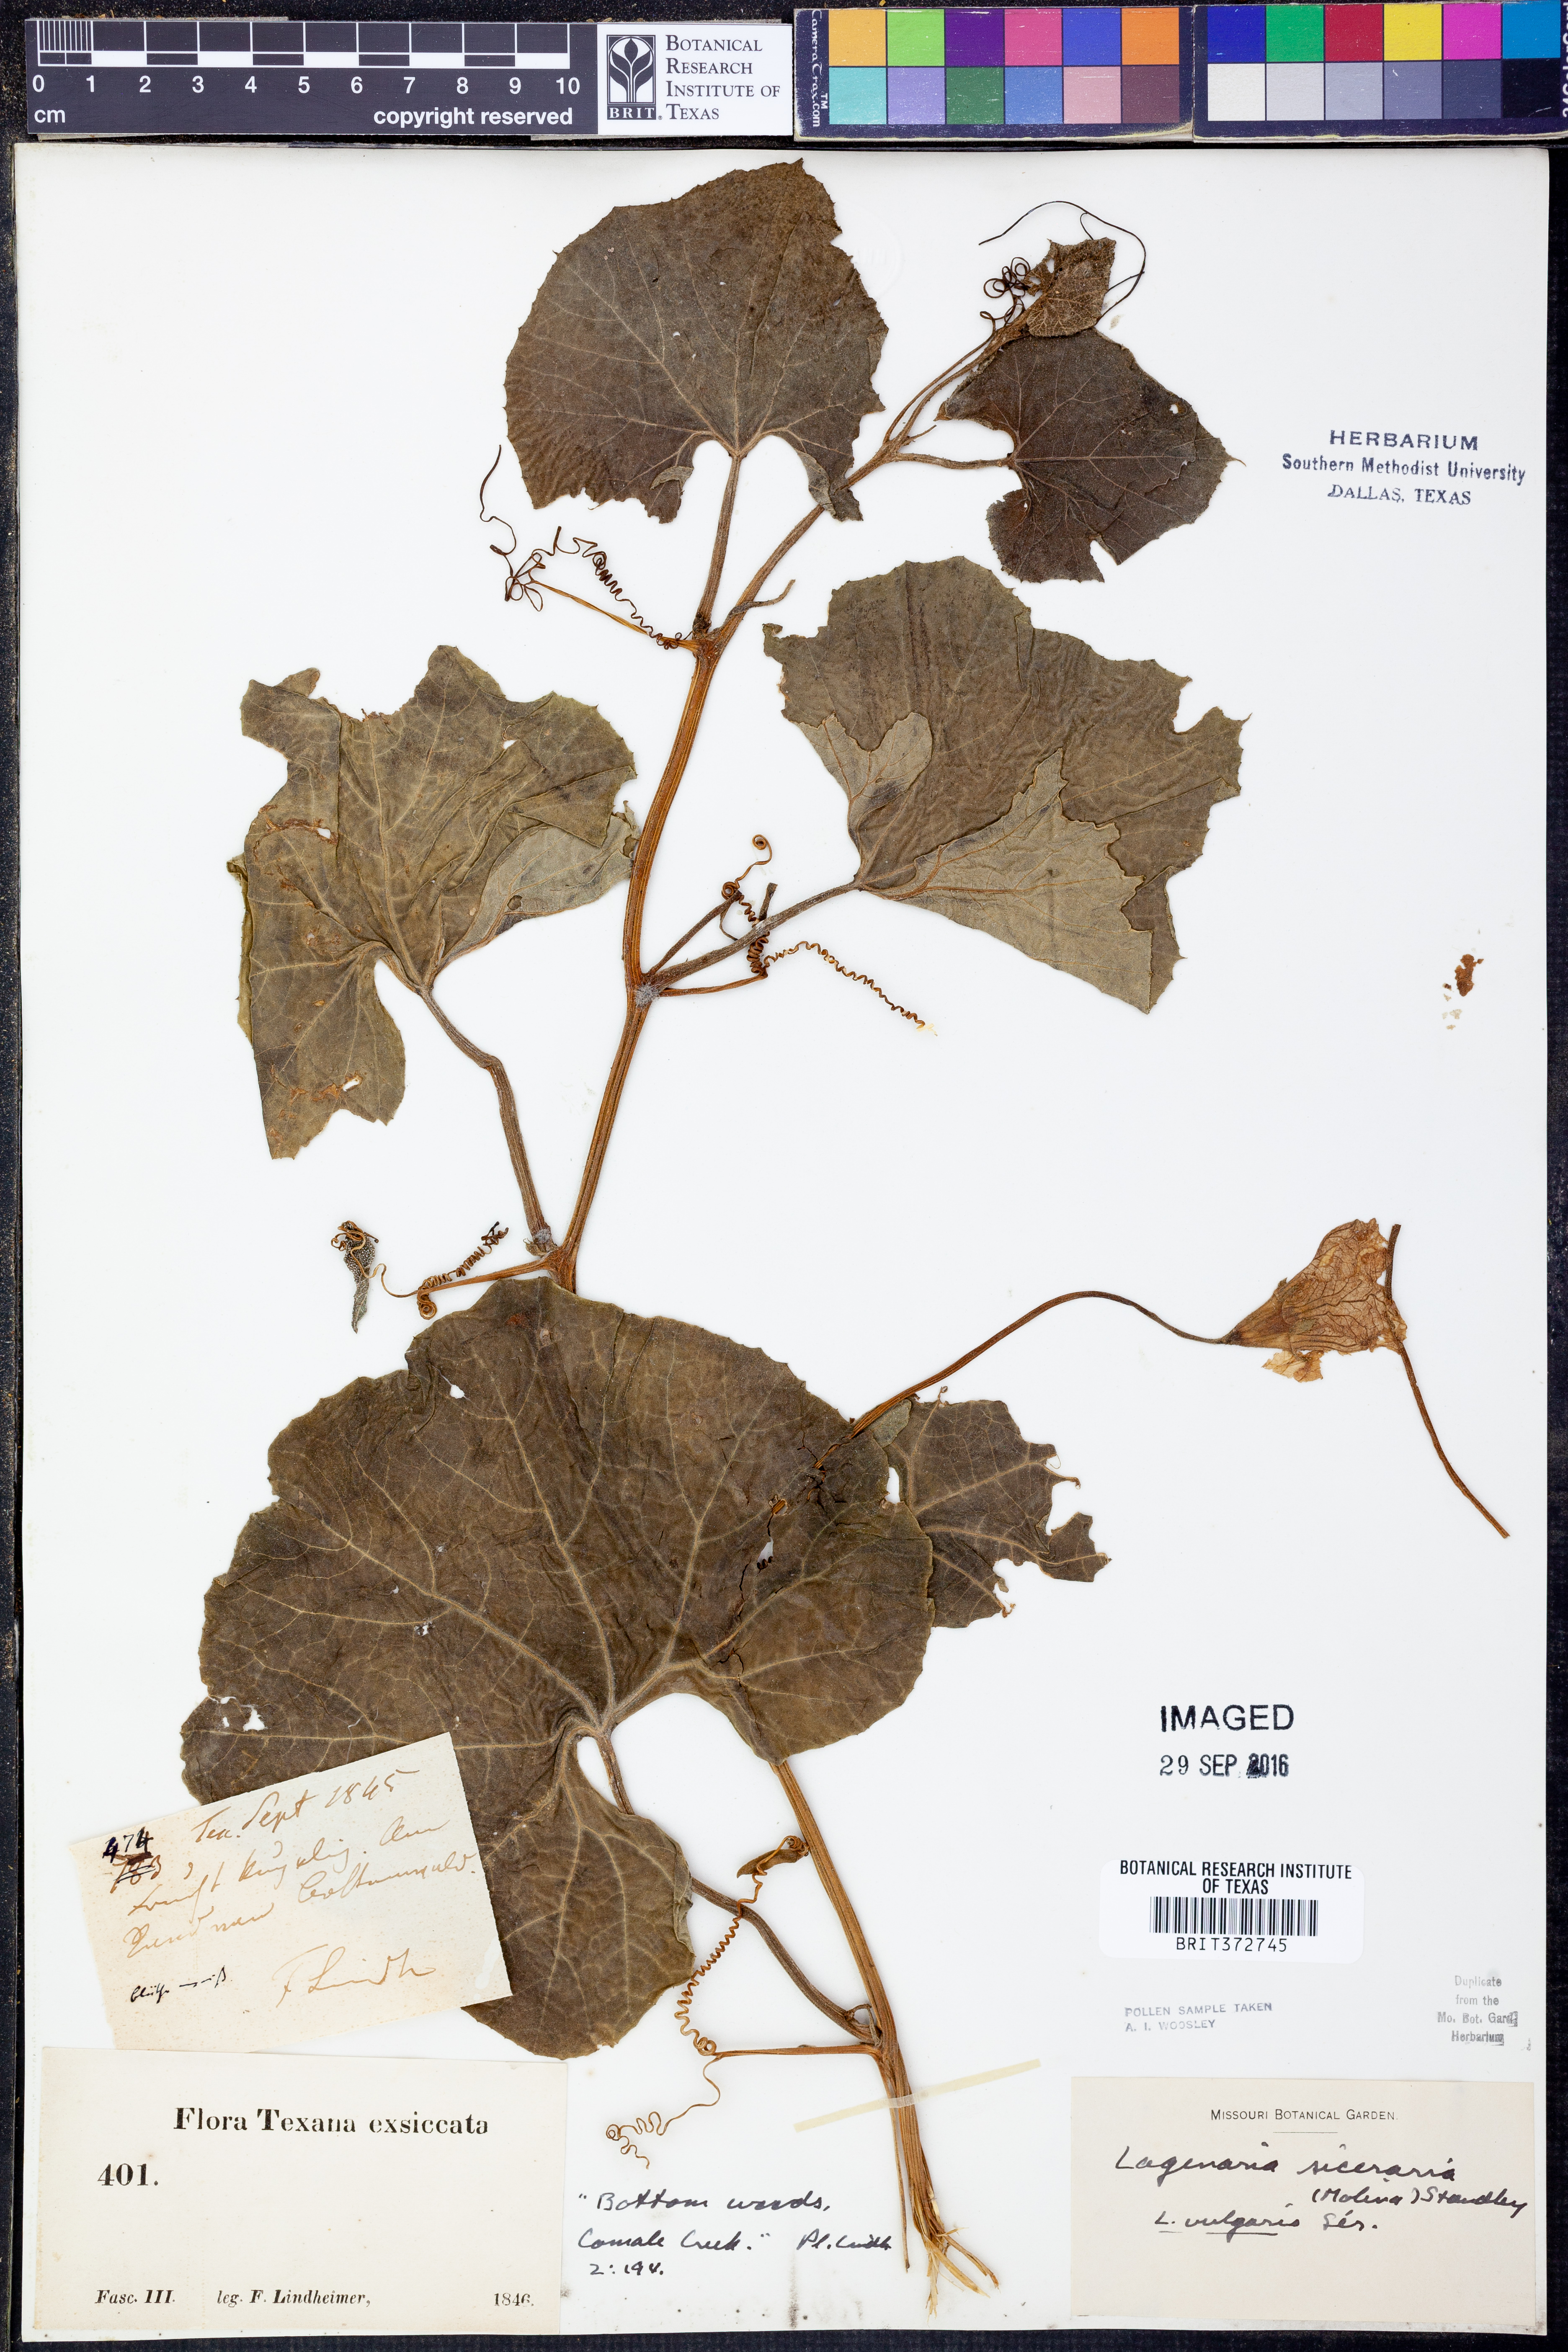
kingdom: Plantae
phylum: Tracheophyta
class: Magnoliopsida
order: Cucurbitales
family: Cucurbitaceae
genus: Lagenaria
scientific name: Lagenaria siceraria
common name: Bottle gourd
